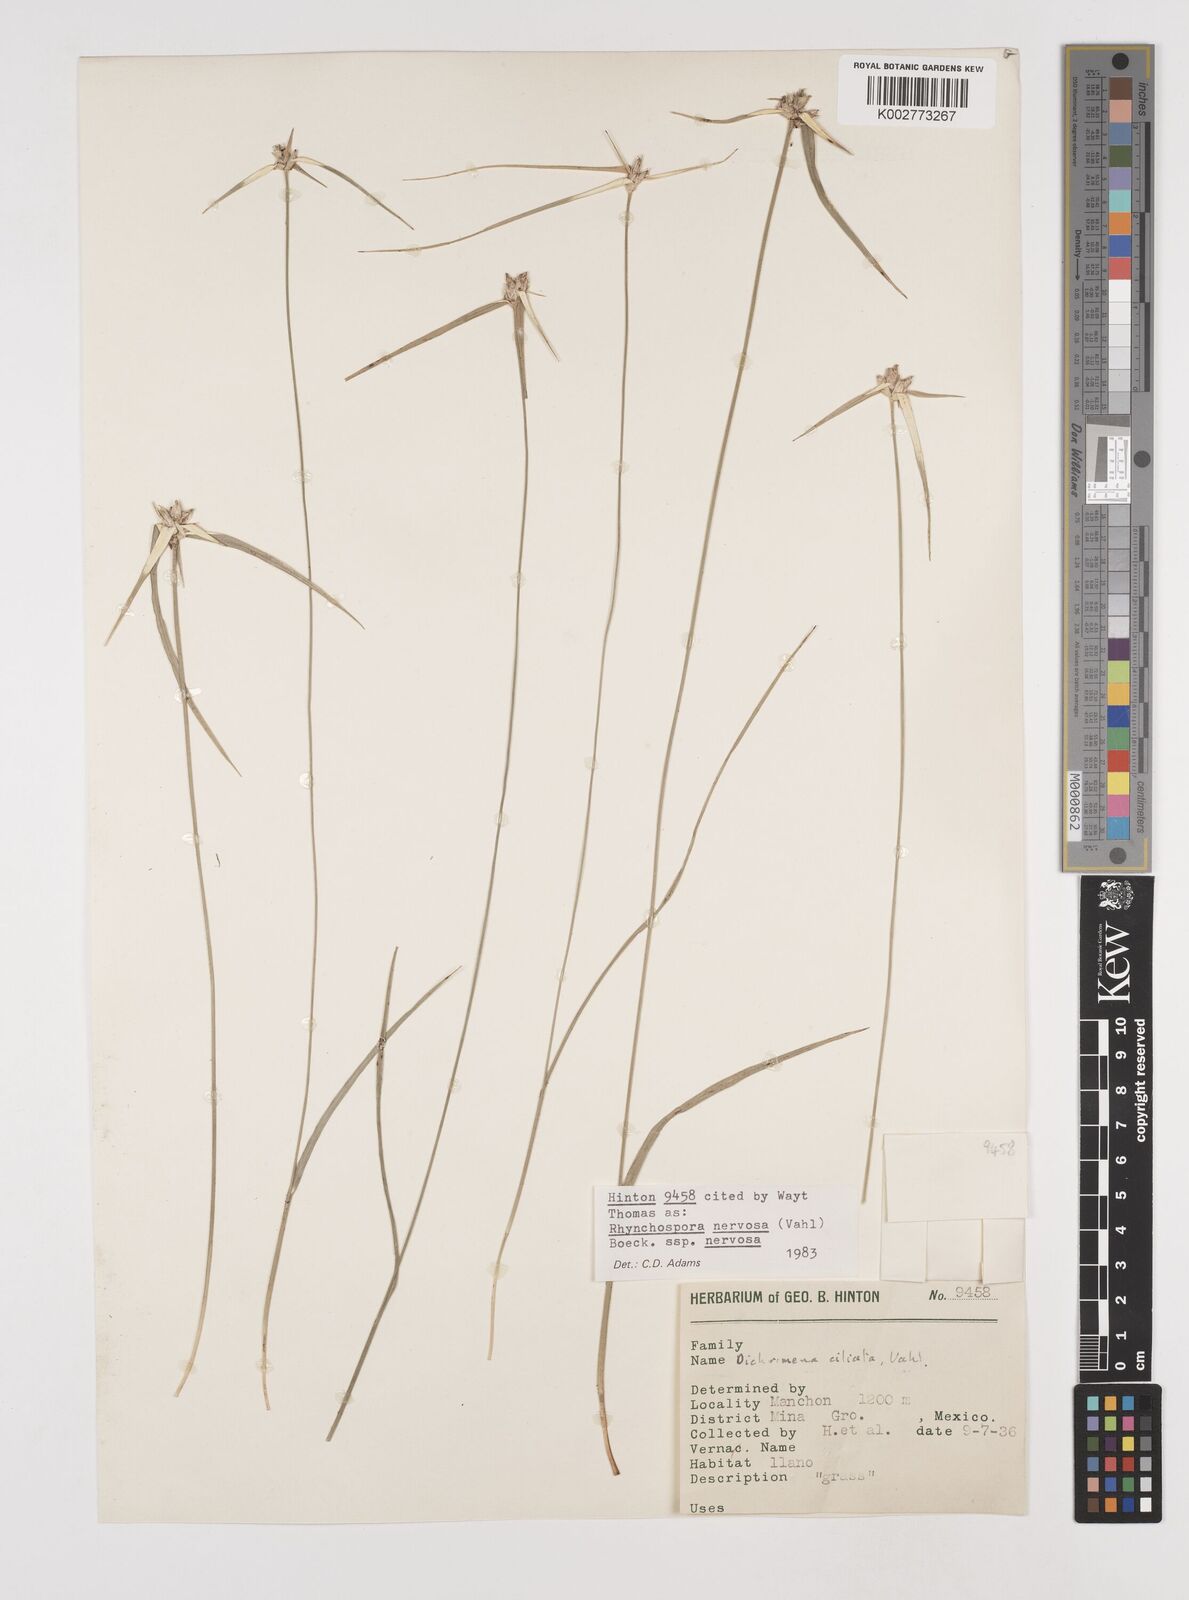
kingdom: Plantae
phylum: Tracheophyta
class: Liliopsida
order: Poales
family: Cyperaceae
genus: Rhynchospora
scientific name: Rhynchospora nervosa
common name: Star sedge
